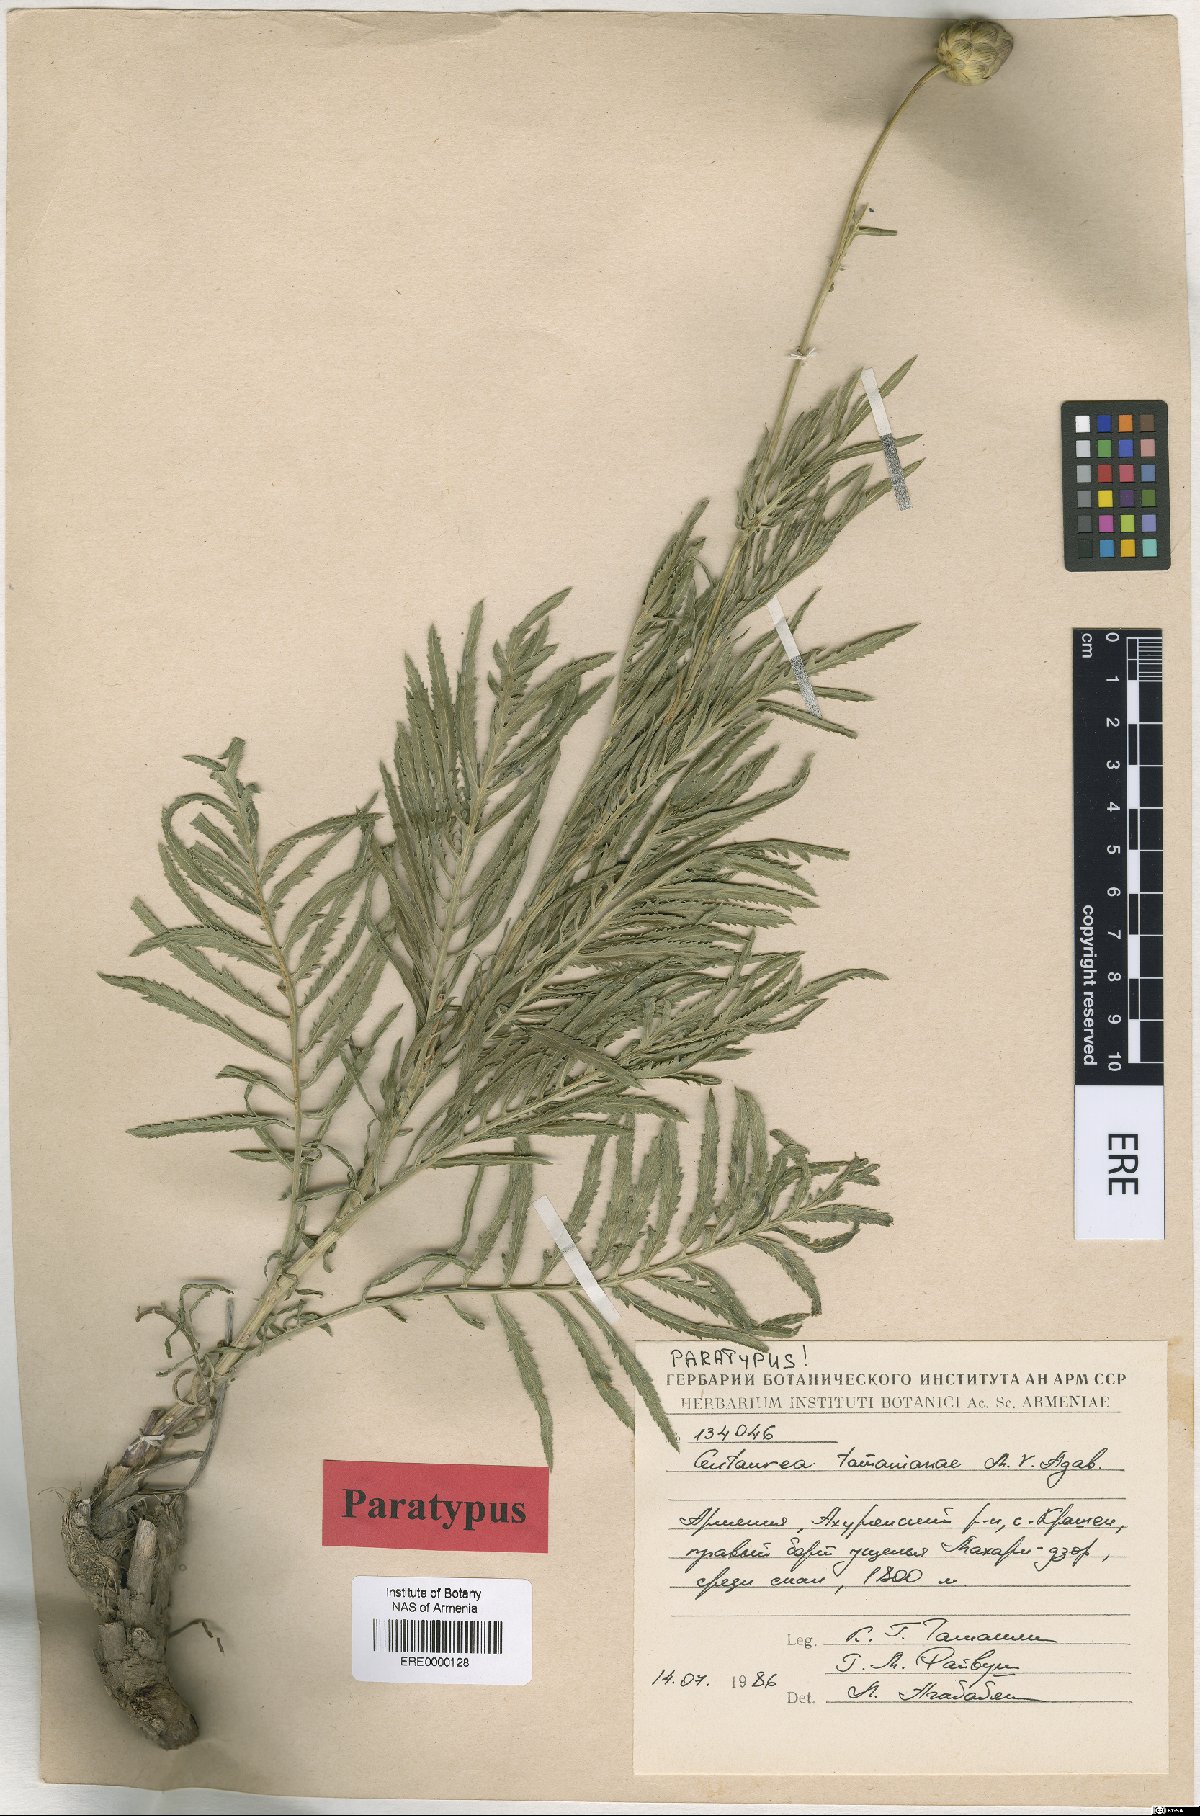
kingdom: Plantae
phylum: Tracheophyta
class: Magnoliopsida
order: Asterales
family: Asteraceae
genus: Rhaponticoides
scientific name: Rhaponticoides tamanianae
